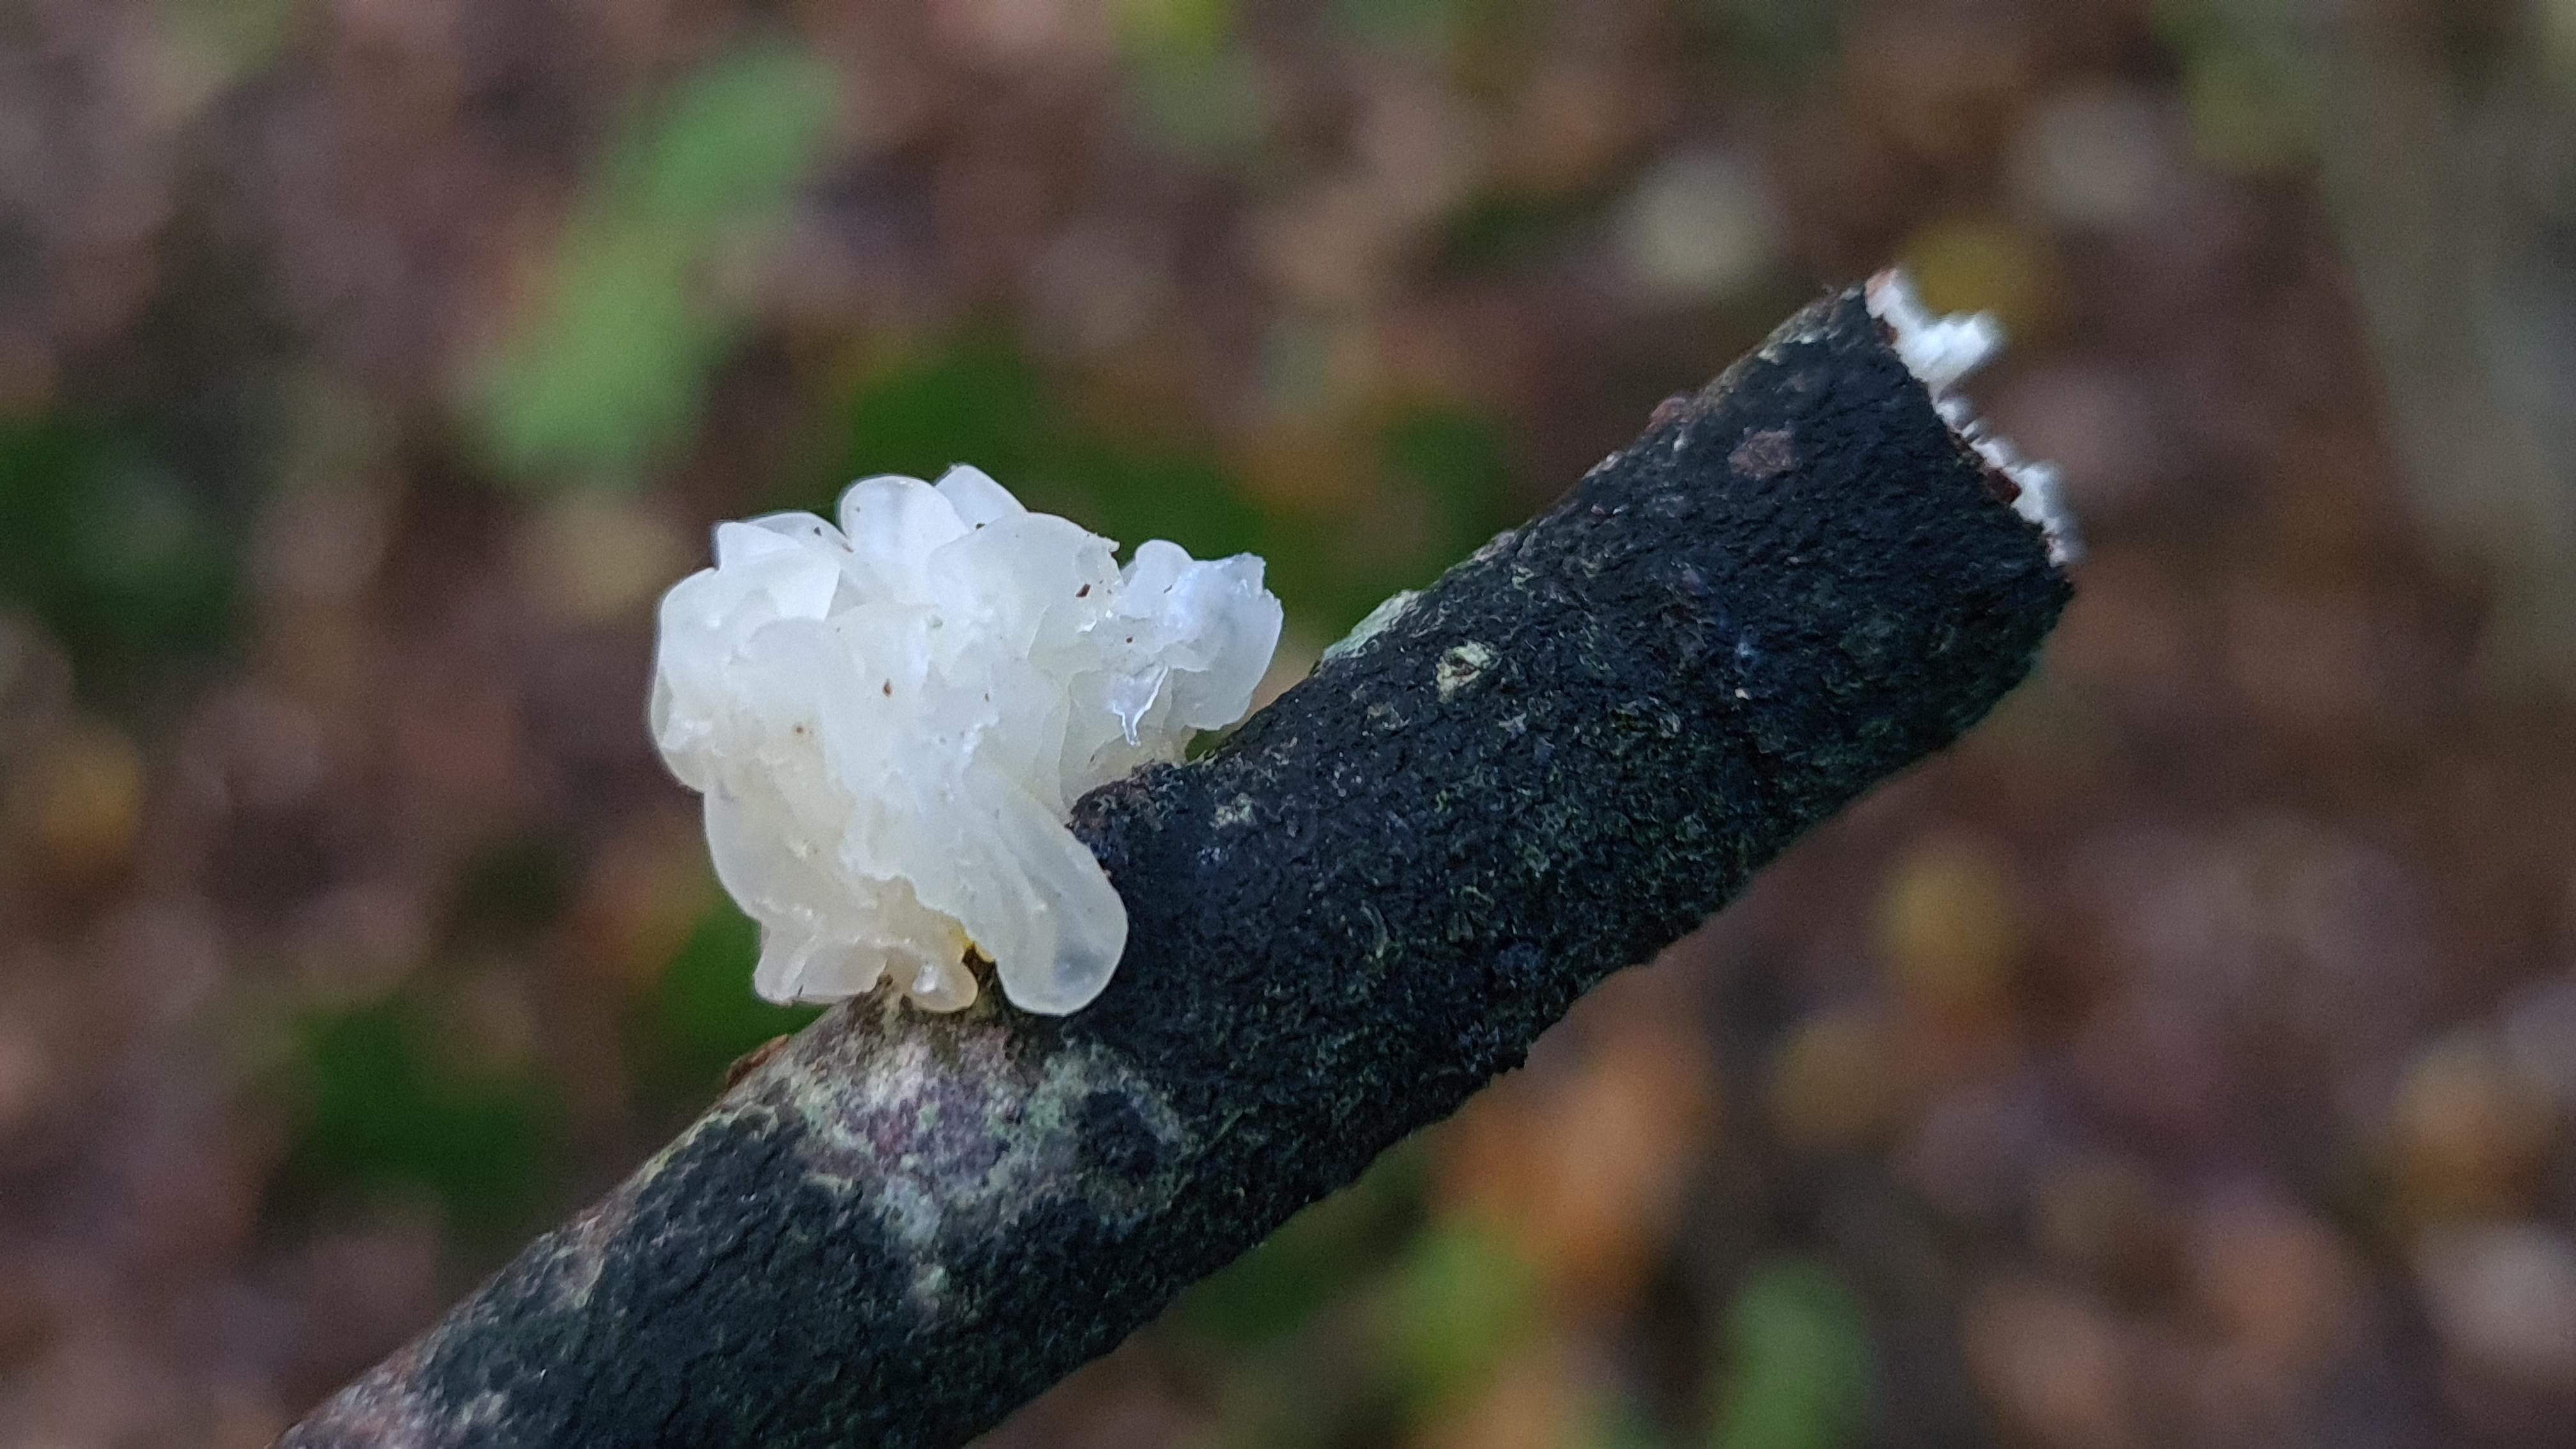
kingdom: Fungi
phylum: Basidiomycota
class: Tremellomycetes
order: Tremellales
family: Tremellaceae
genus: Tremella
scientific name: Tremella mesenterica
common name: gul bævresvamp
